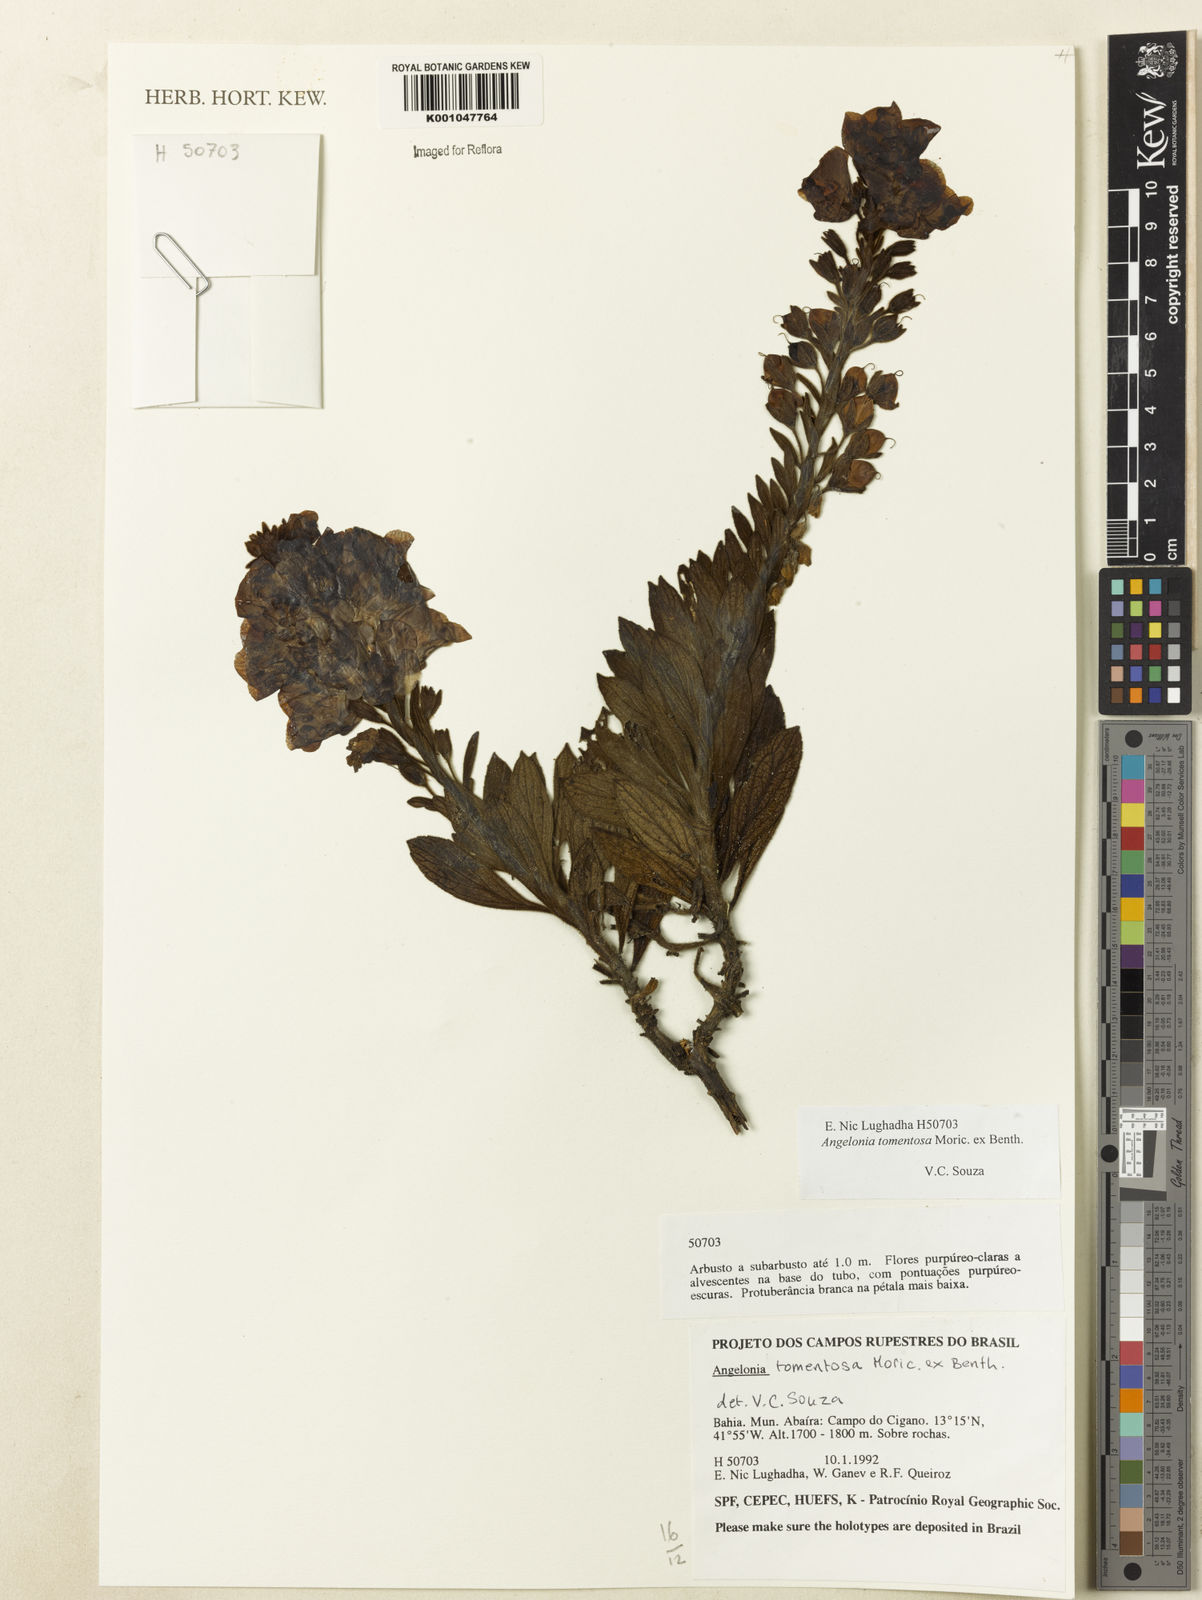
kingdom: Plantae
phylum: Tracheophyta
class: Magnoliopsida
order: Lamiales
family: Plantaginaceae
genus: Angelonia
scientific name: Angelonia tomentosa
